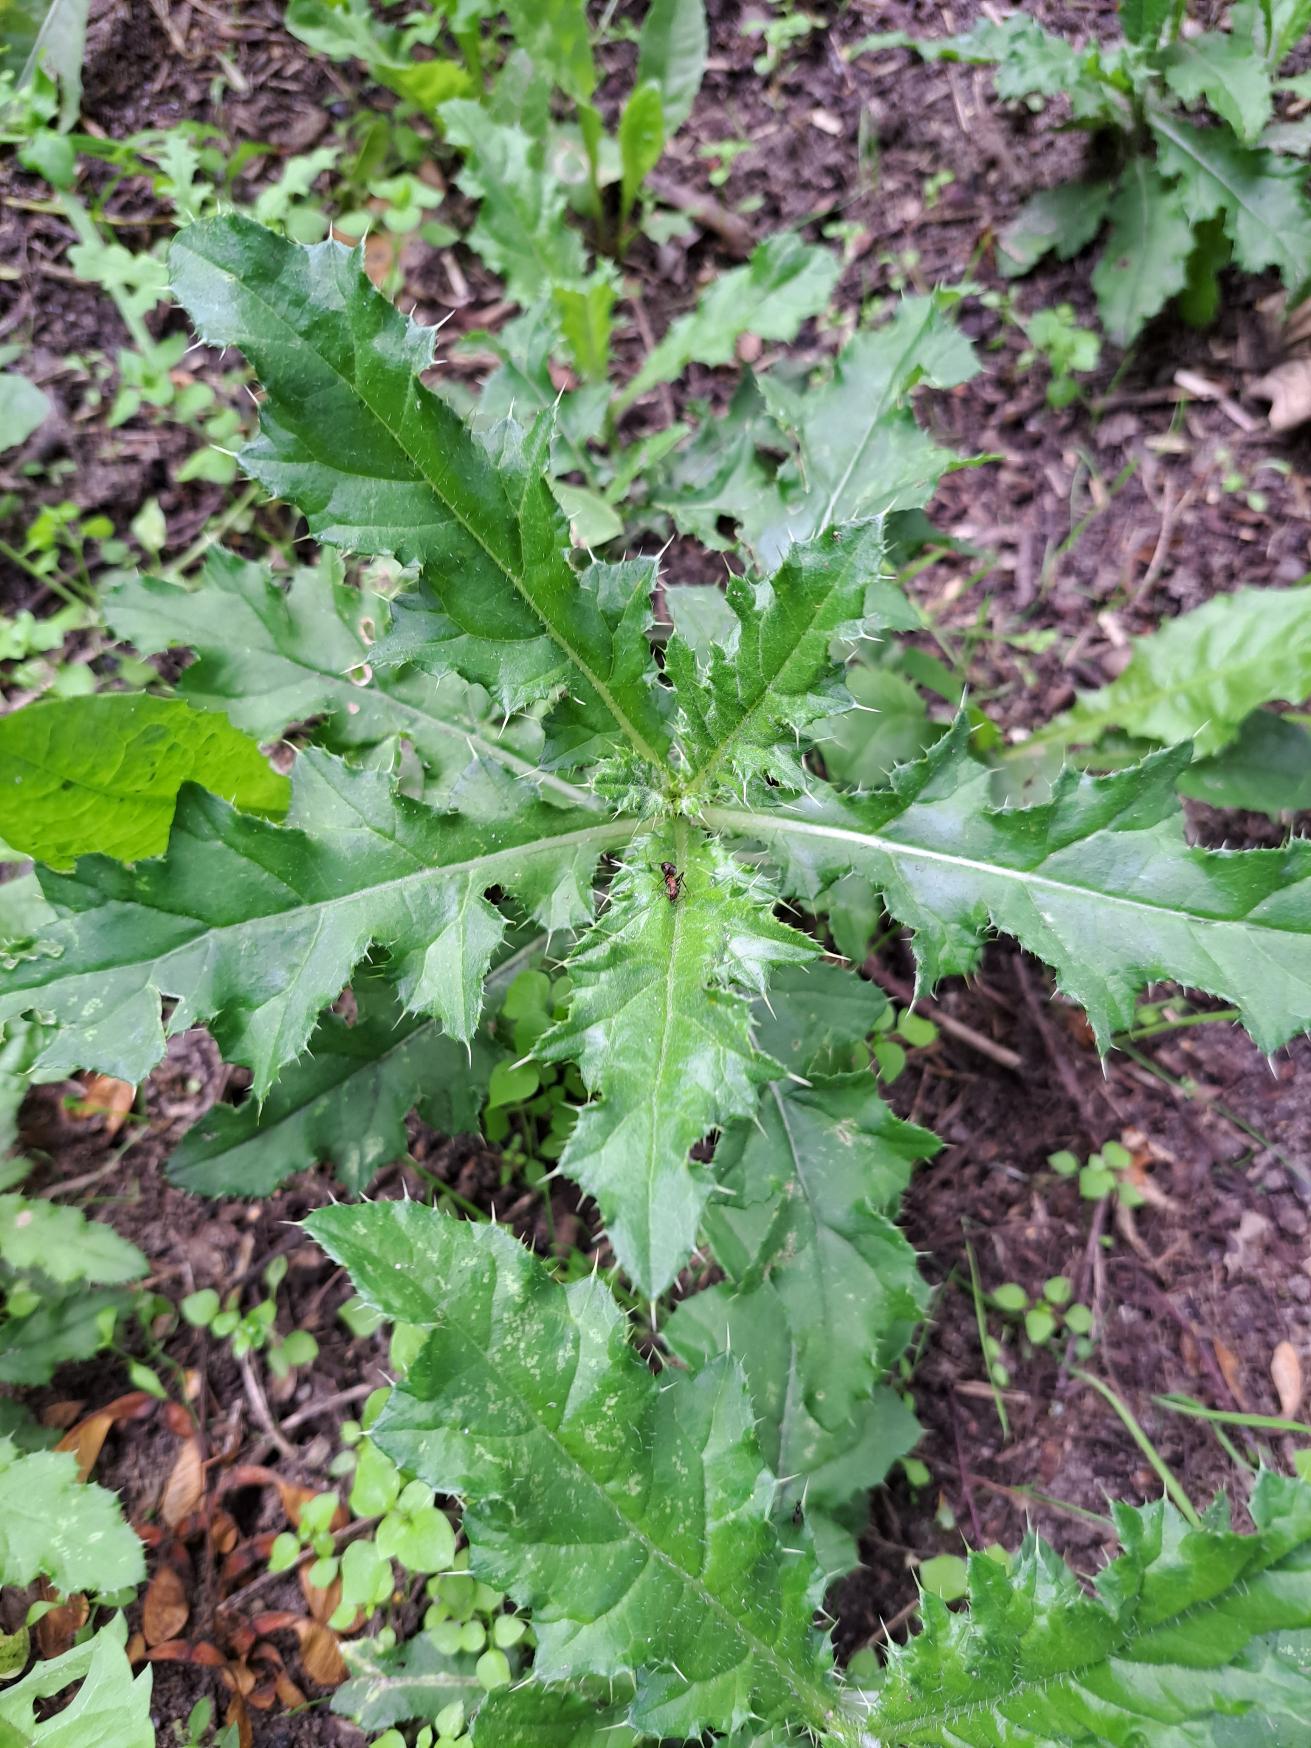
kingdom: Plantae
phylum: Tracheophyta
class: Magnoliopsida
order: Asterales
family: Asteraceae
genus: Cirsium
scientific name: Cirsium arvense
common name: Ager-tidsel
